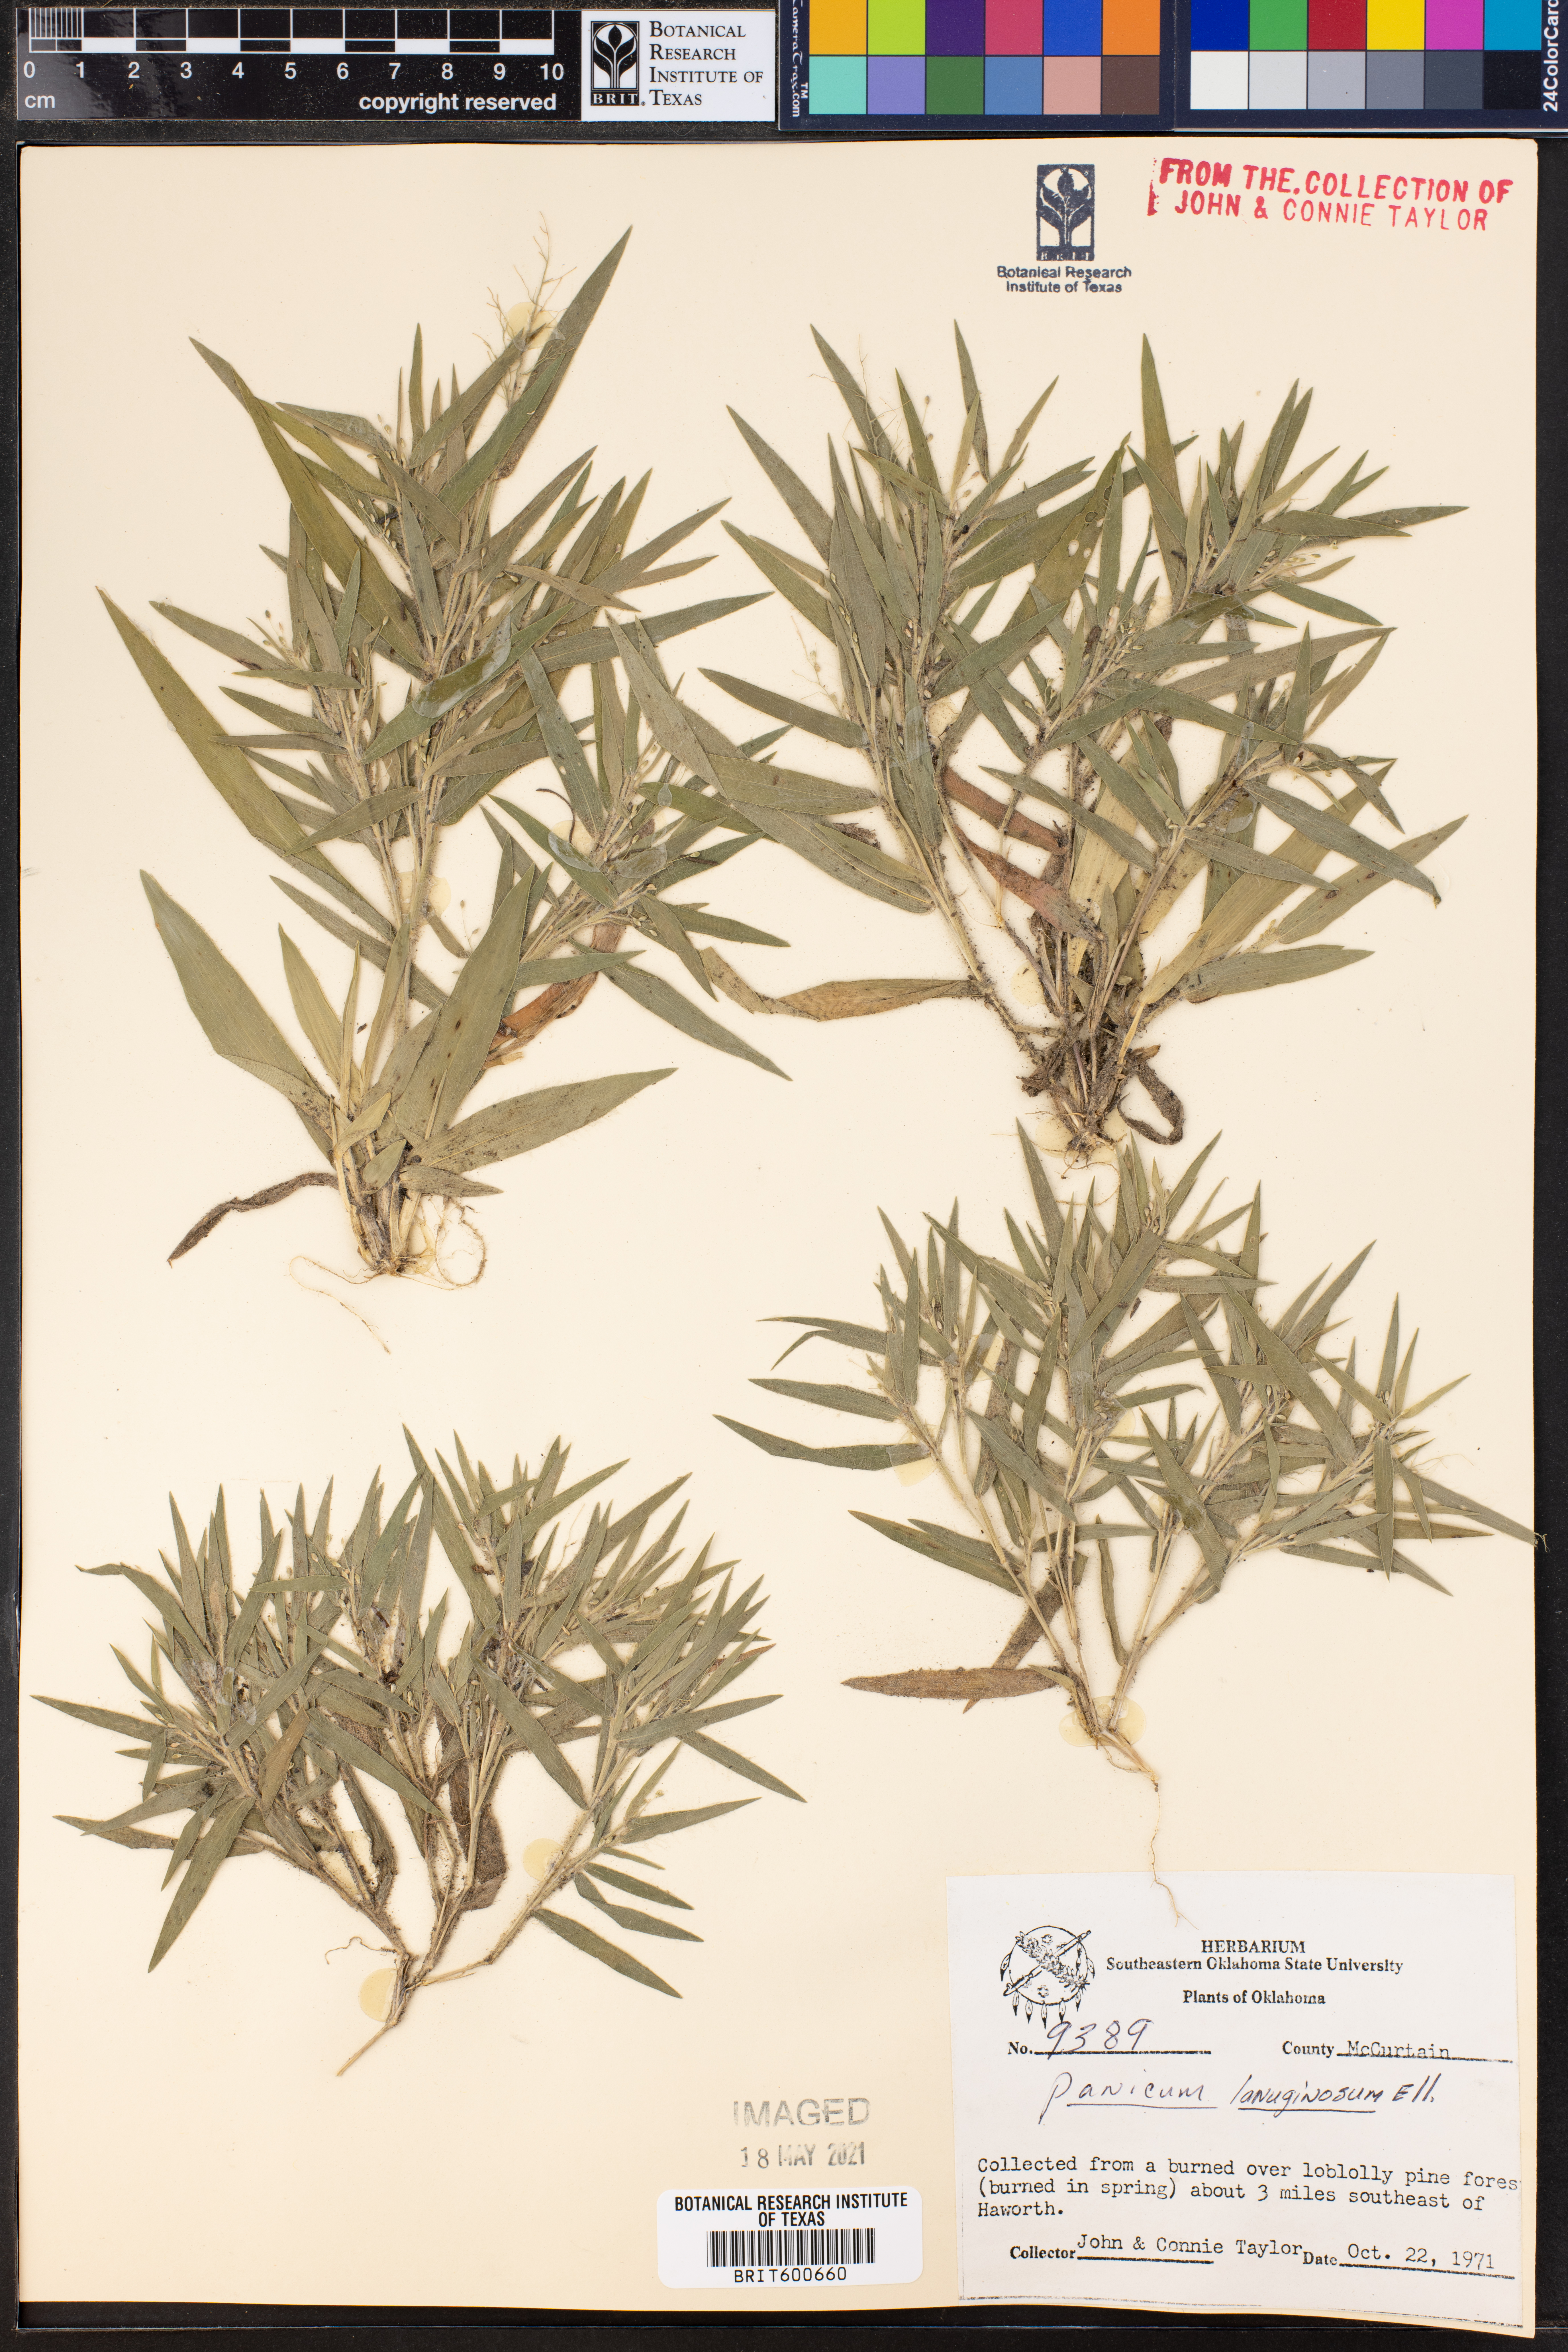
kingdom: Plantae
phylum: Tracheophyta
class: Liliopsida
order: Poales
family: Poaceae
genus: Dichanthelium
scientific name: Dichanthelium lanuginosum
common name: Woolly panicgrass
